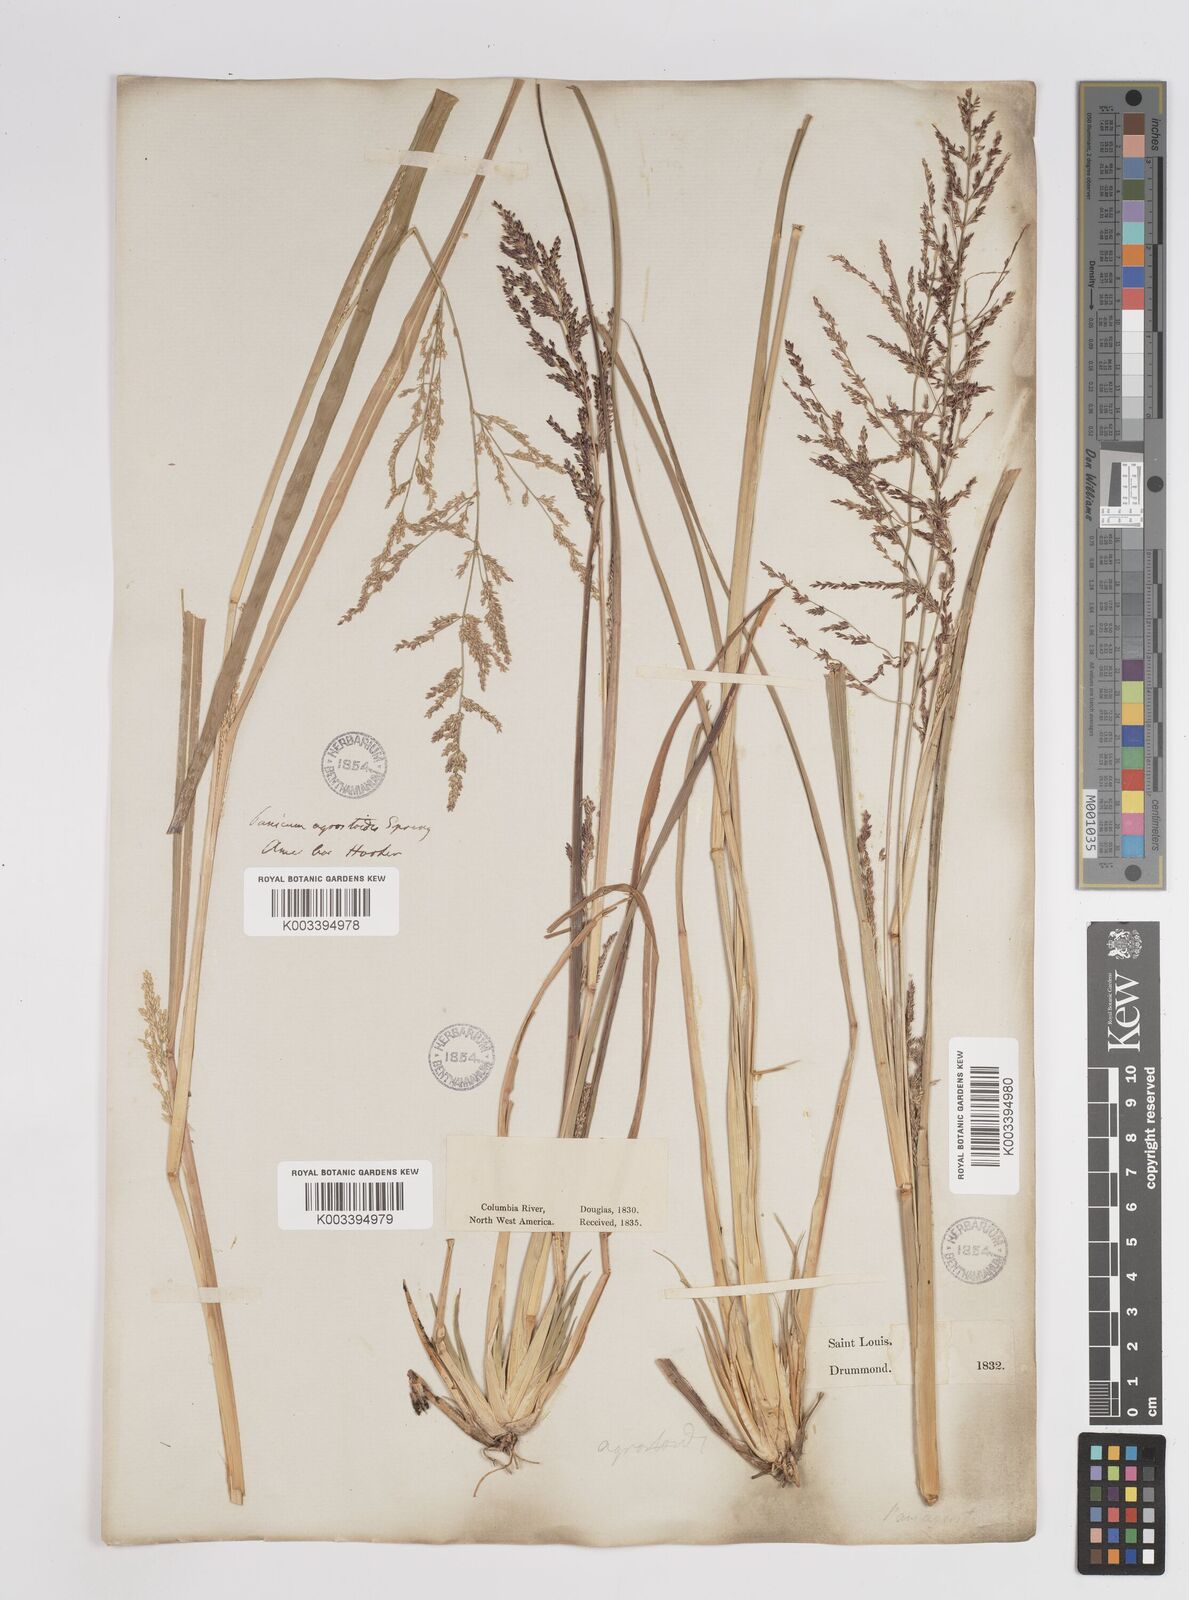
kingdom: Plantae
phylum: Tracheophyta
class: Liliopsida
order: Poales
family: Poaceae
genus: Steinchisma
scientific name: Steinchisma laxum
